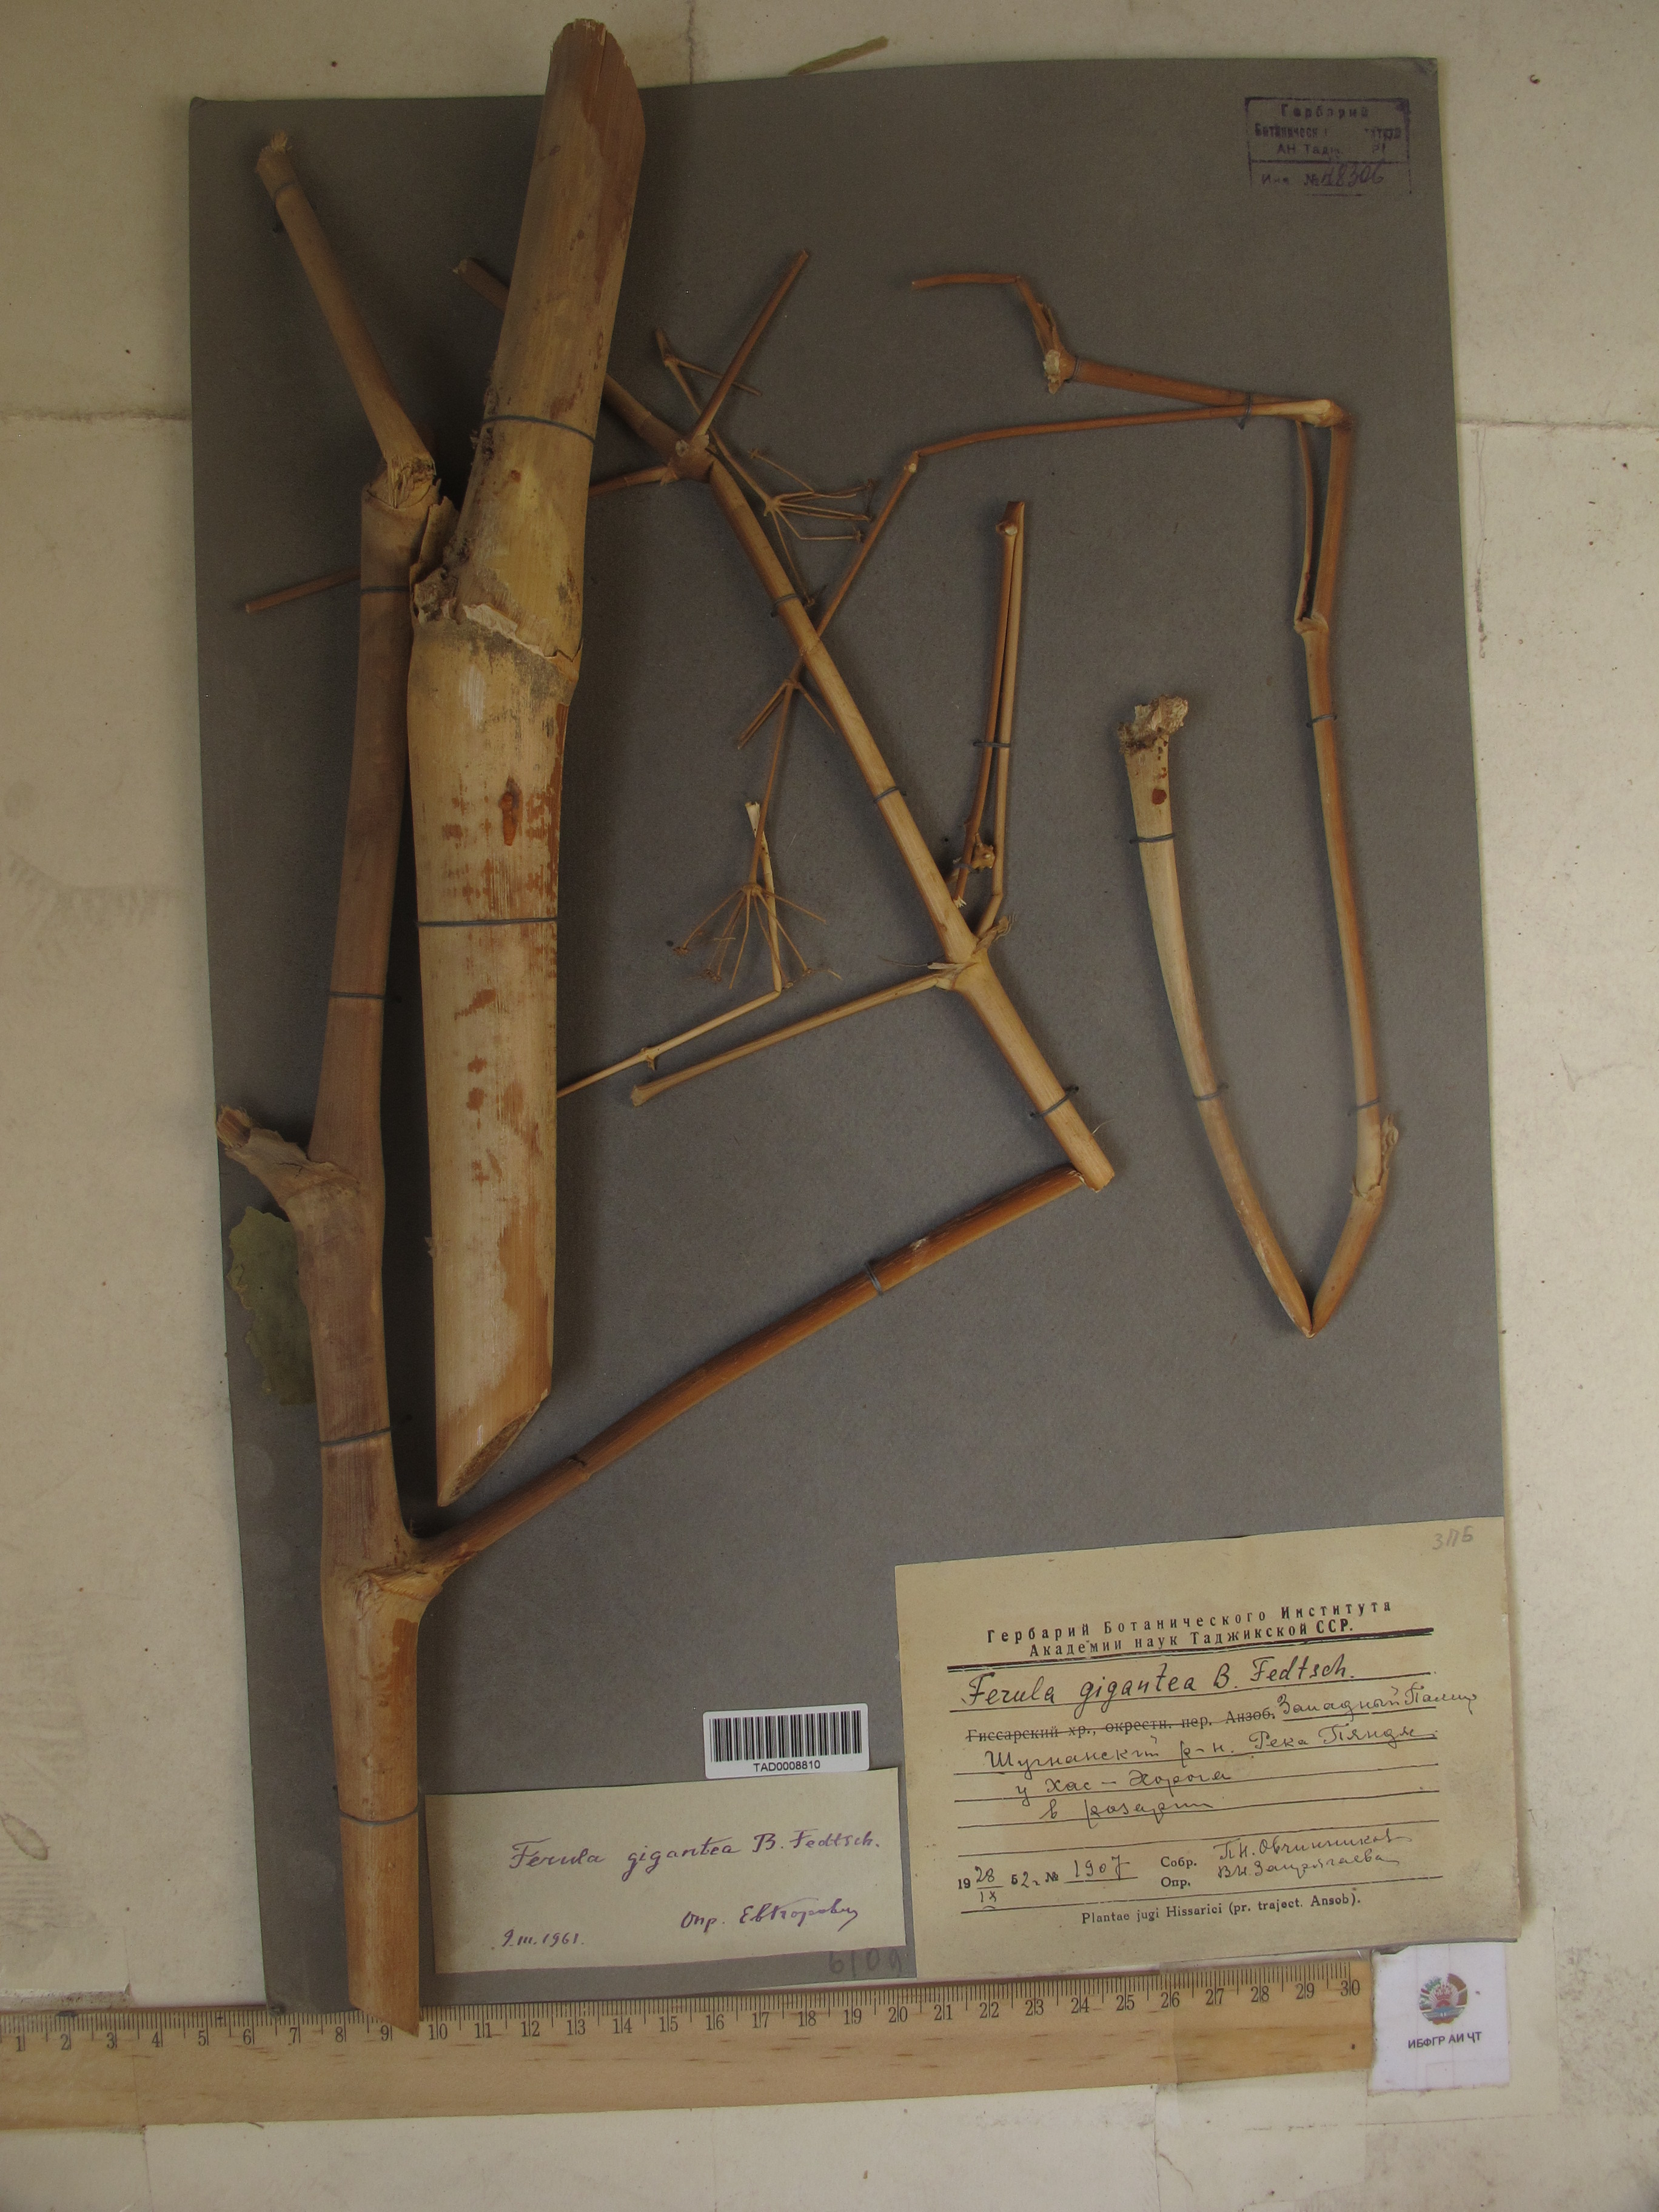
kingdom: Plantae
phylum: Tracheophyta
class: Magnoliopsida
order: Apiales
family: Apiaceae
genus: Ferula
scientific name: Ferula gigantea
